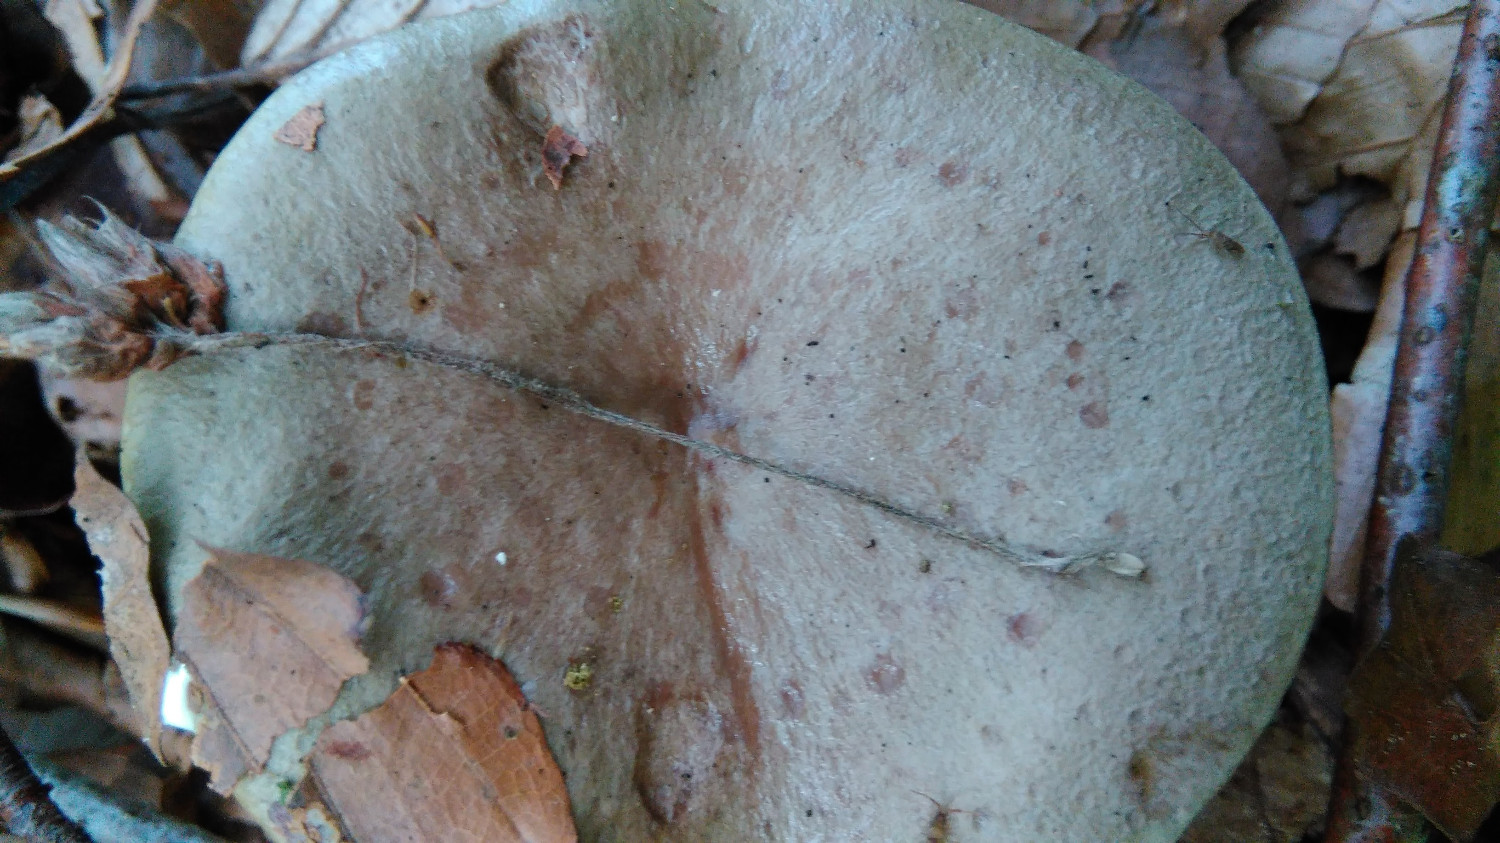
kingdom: Fungi
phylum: Basidiomycota
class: Agaricomycetes
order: Russulales
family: Russulaceae
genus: Lactarius
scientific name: Lactarius blennius
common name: dråbeplettet mælkehat
